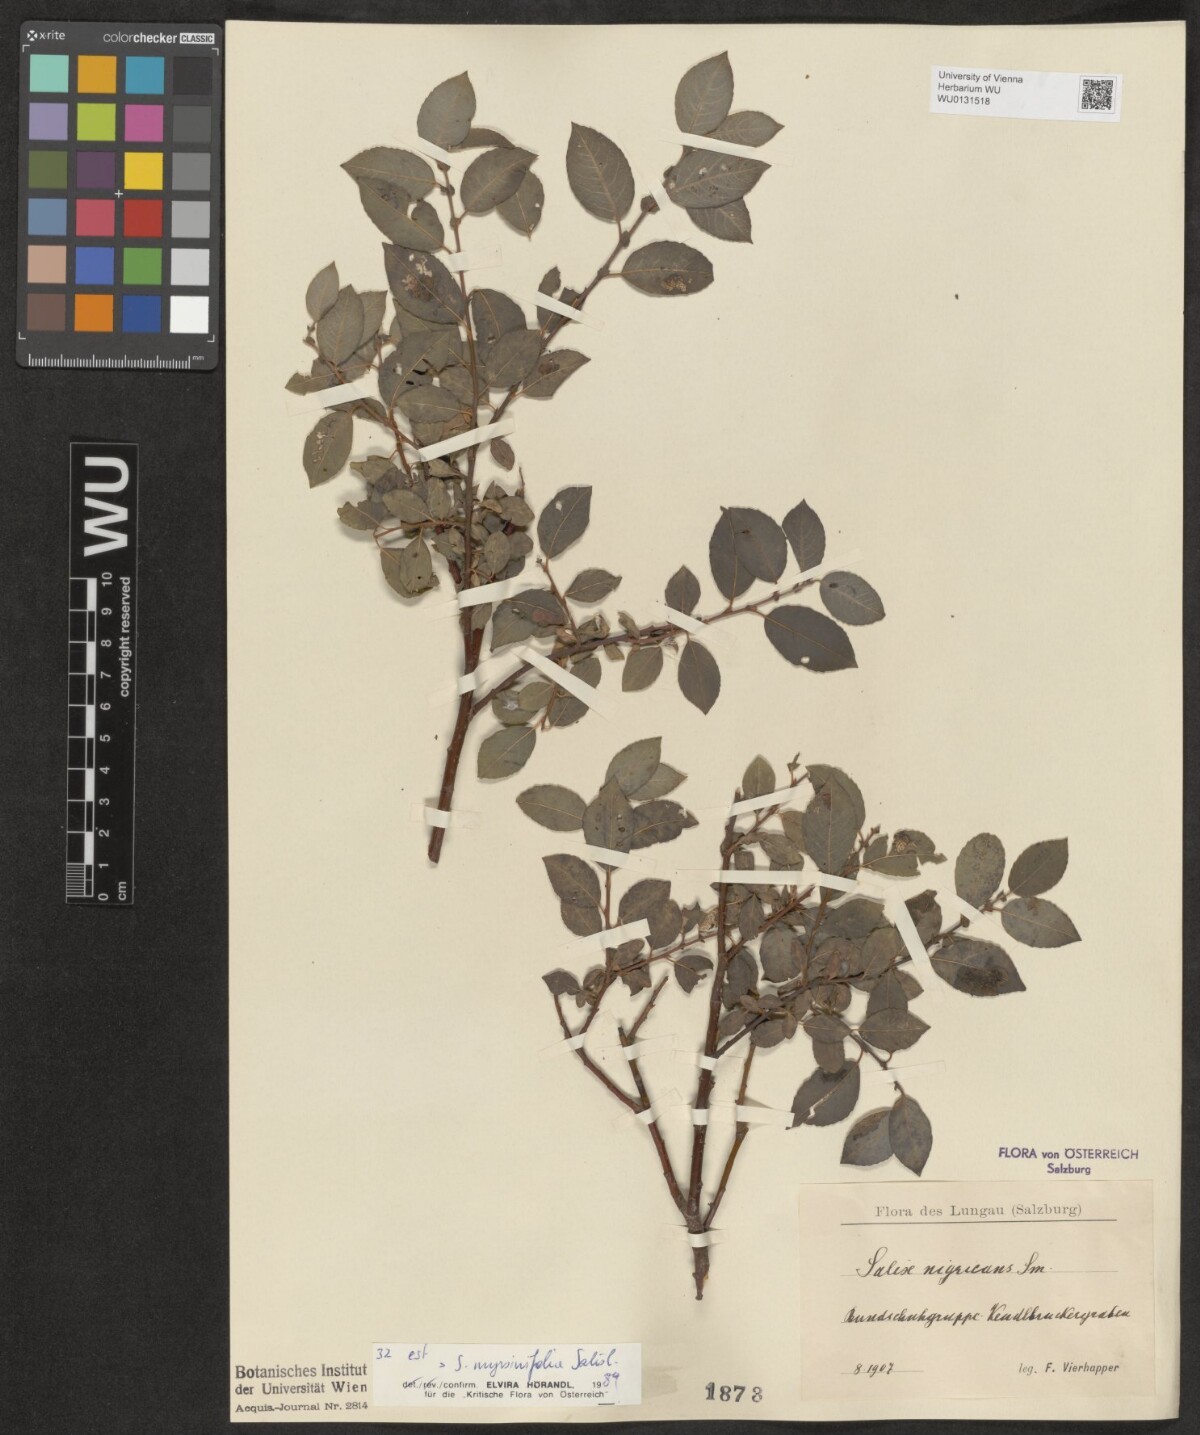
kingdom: Plantae
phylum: Tracheophyta
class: Magnoliopsida
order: Malpighiales
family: Salicaceae
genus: Salix
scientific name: Salix myrsinifolia
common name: Dark-leaved willow
